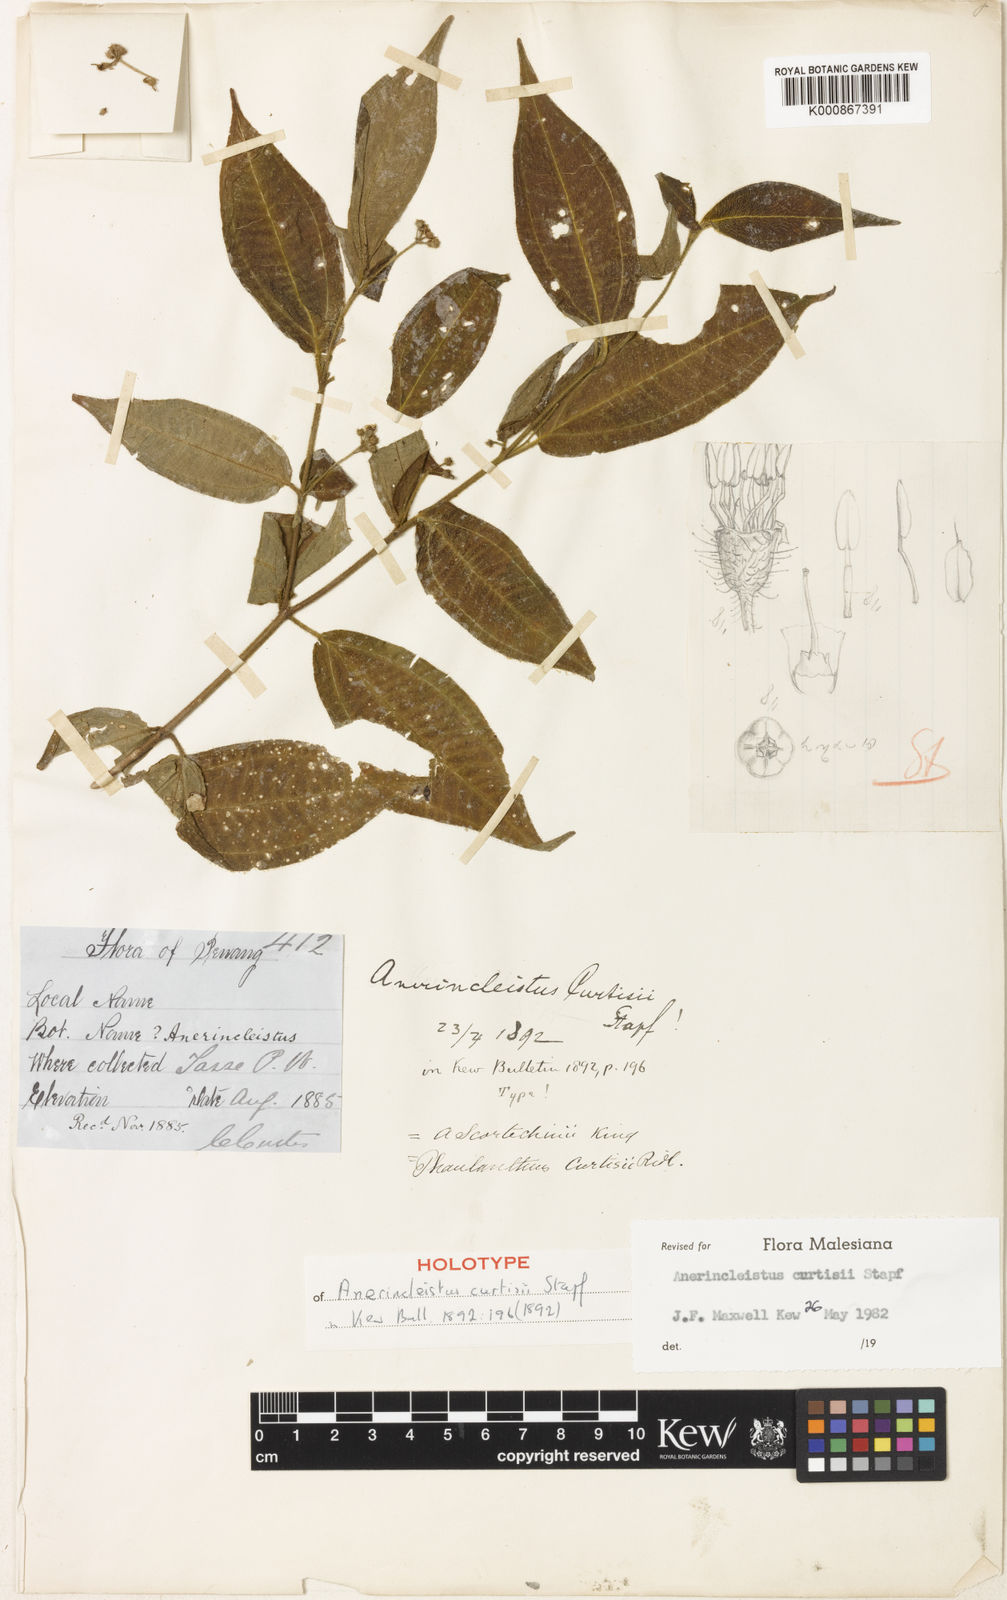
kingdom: Plantae
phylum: Tracheophyta
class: Magnoliopsida
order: Myrtales
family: Melastomataceae
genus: Anerincleistus
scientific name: Anerincleistus curtisii
